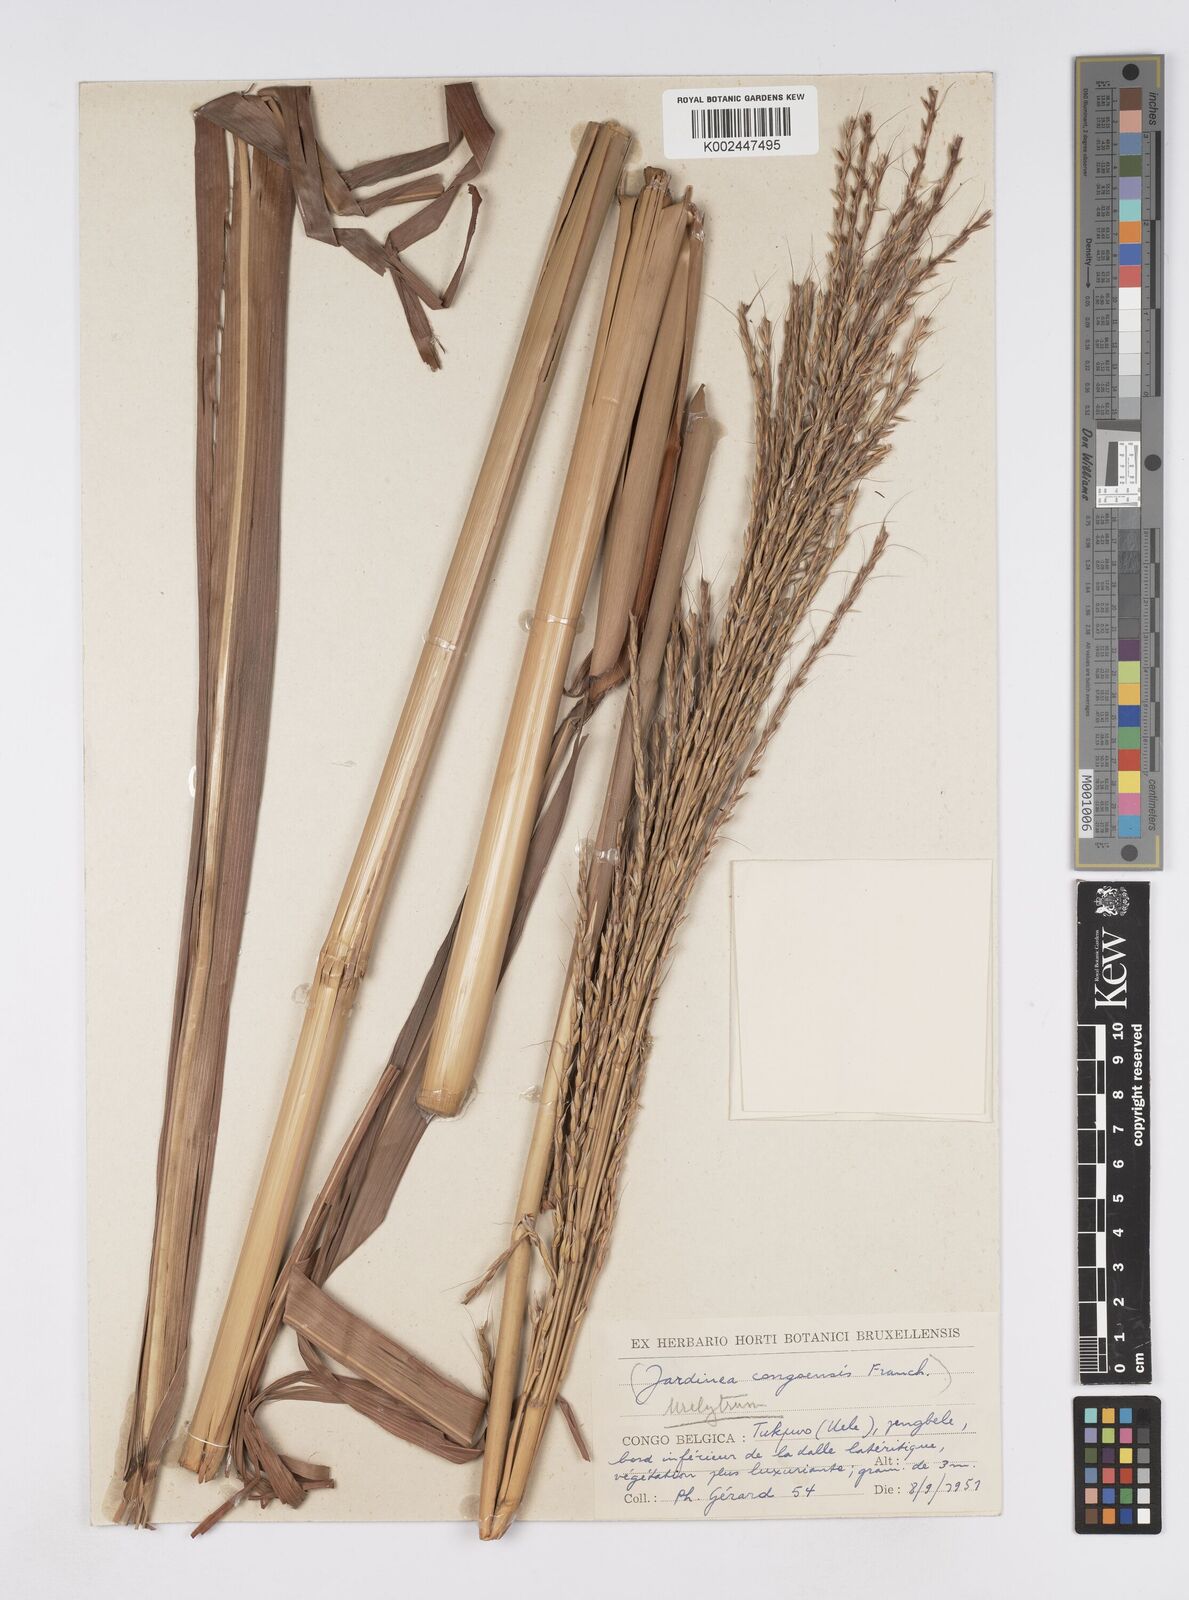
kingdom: Plantae
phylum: Tracheophyta
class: Liliopsida
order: Poales
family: Poaceae
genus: Urelytrum
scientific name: Urelytrum giganteum
